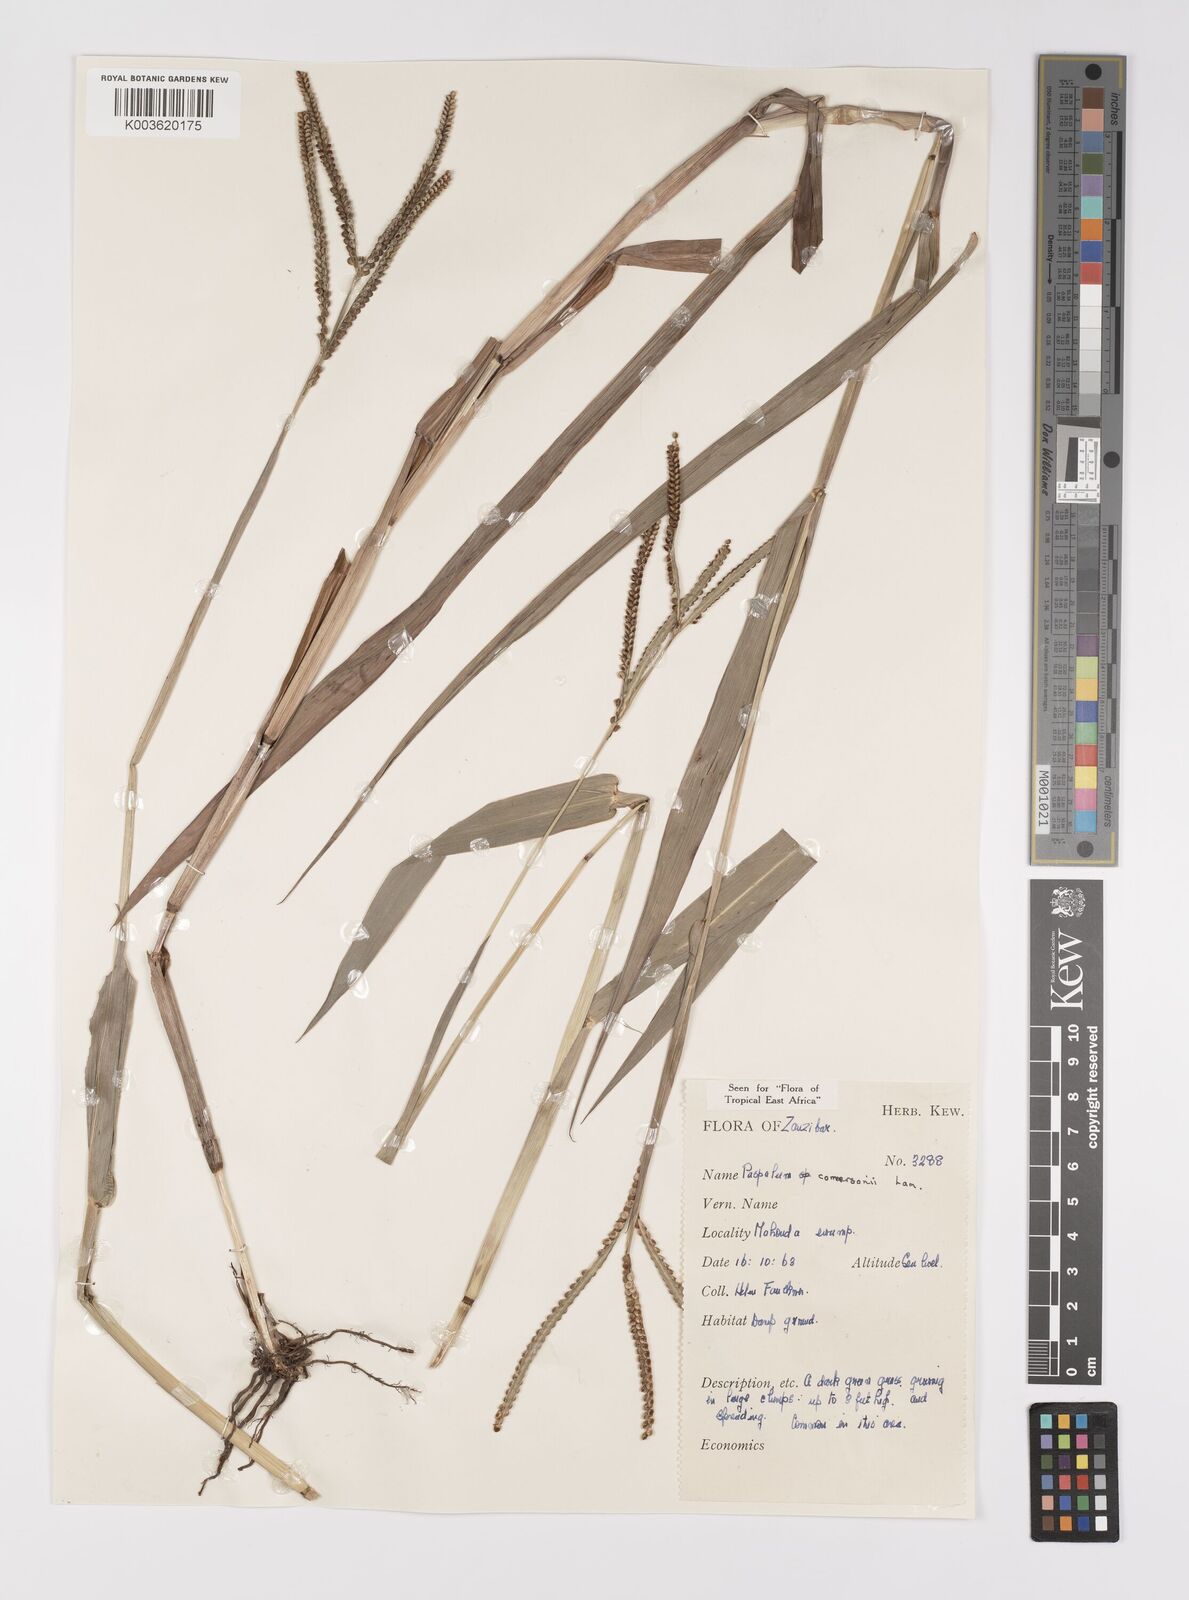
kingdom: Plantae
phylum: Tracheophyta
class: Liliopsida
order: Poales
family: Poaceae
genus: Paspalum
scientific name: Paspalum scrobiculatum
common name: Kodo millet
